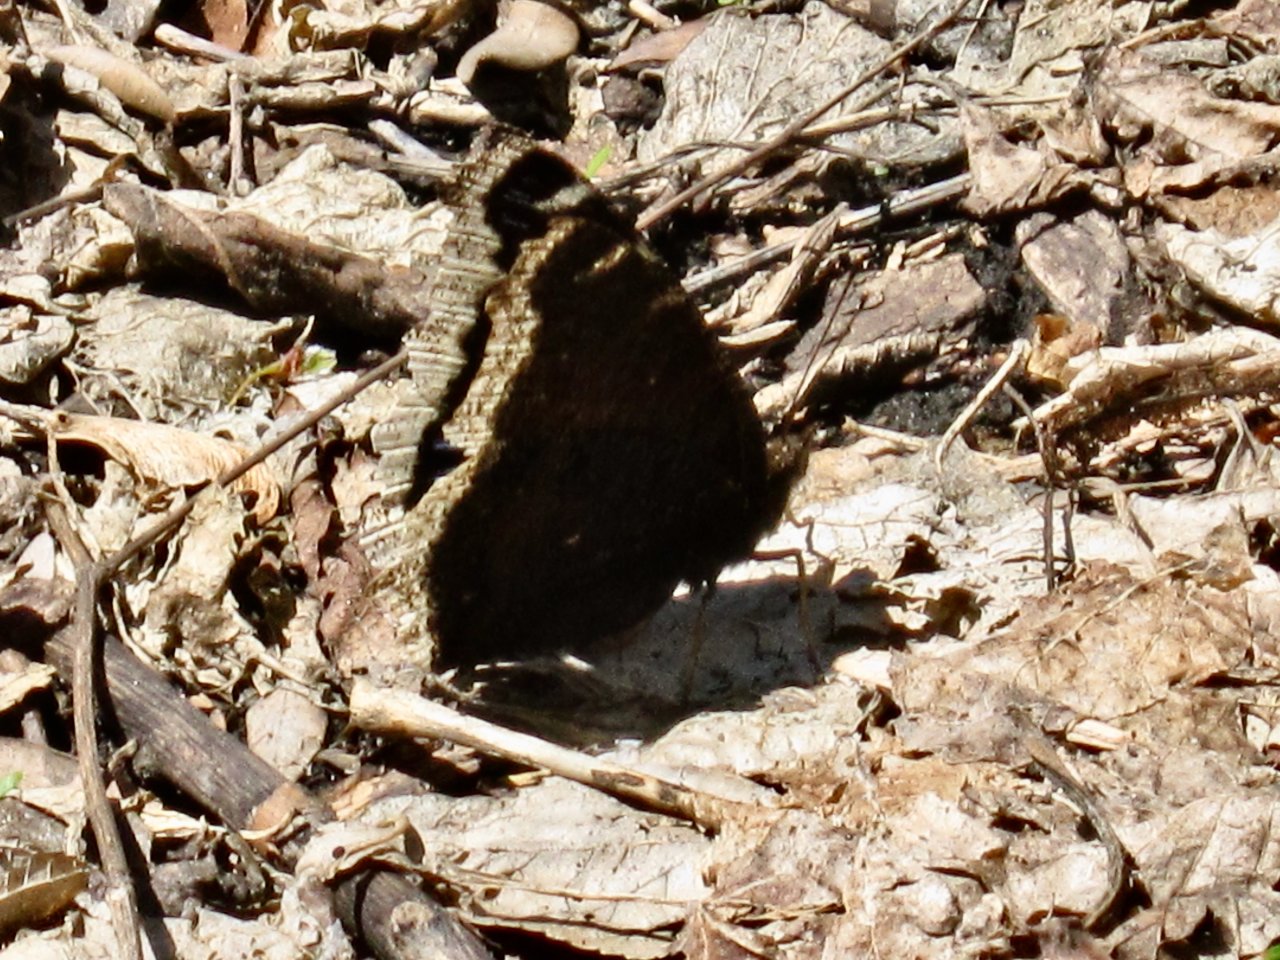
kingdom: Animalia
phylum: Arthropoda
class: Insecta
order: Lepidoptera
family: Nymphalidae
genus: Nymphalis
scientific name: Nymphalis antiopa
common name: Mourning Cloak
